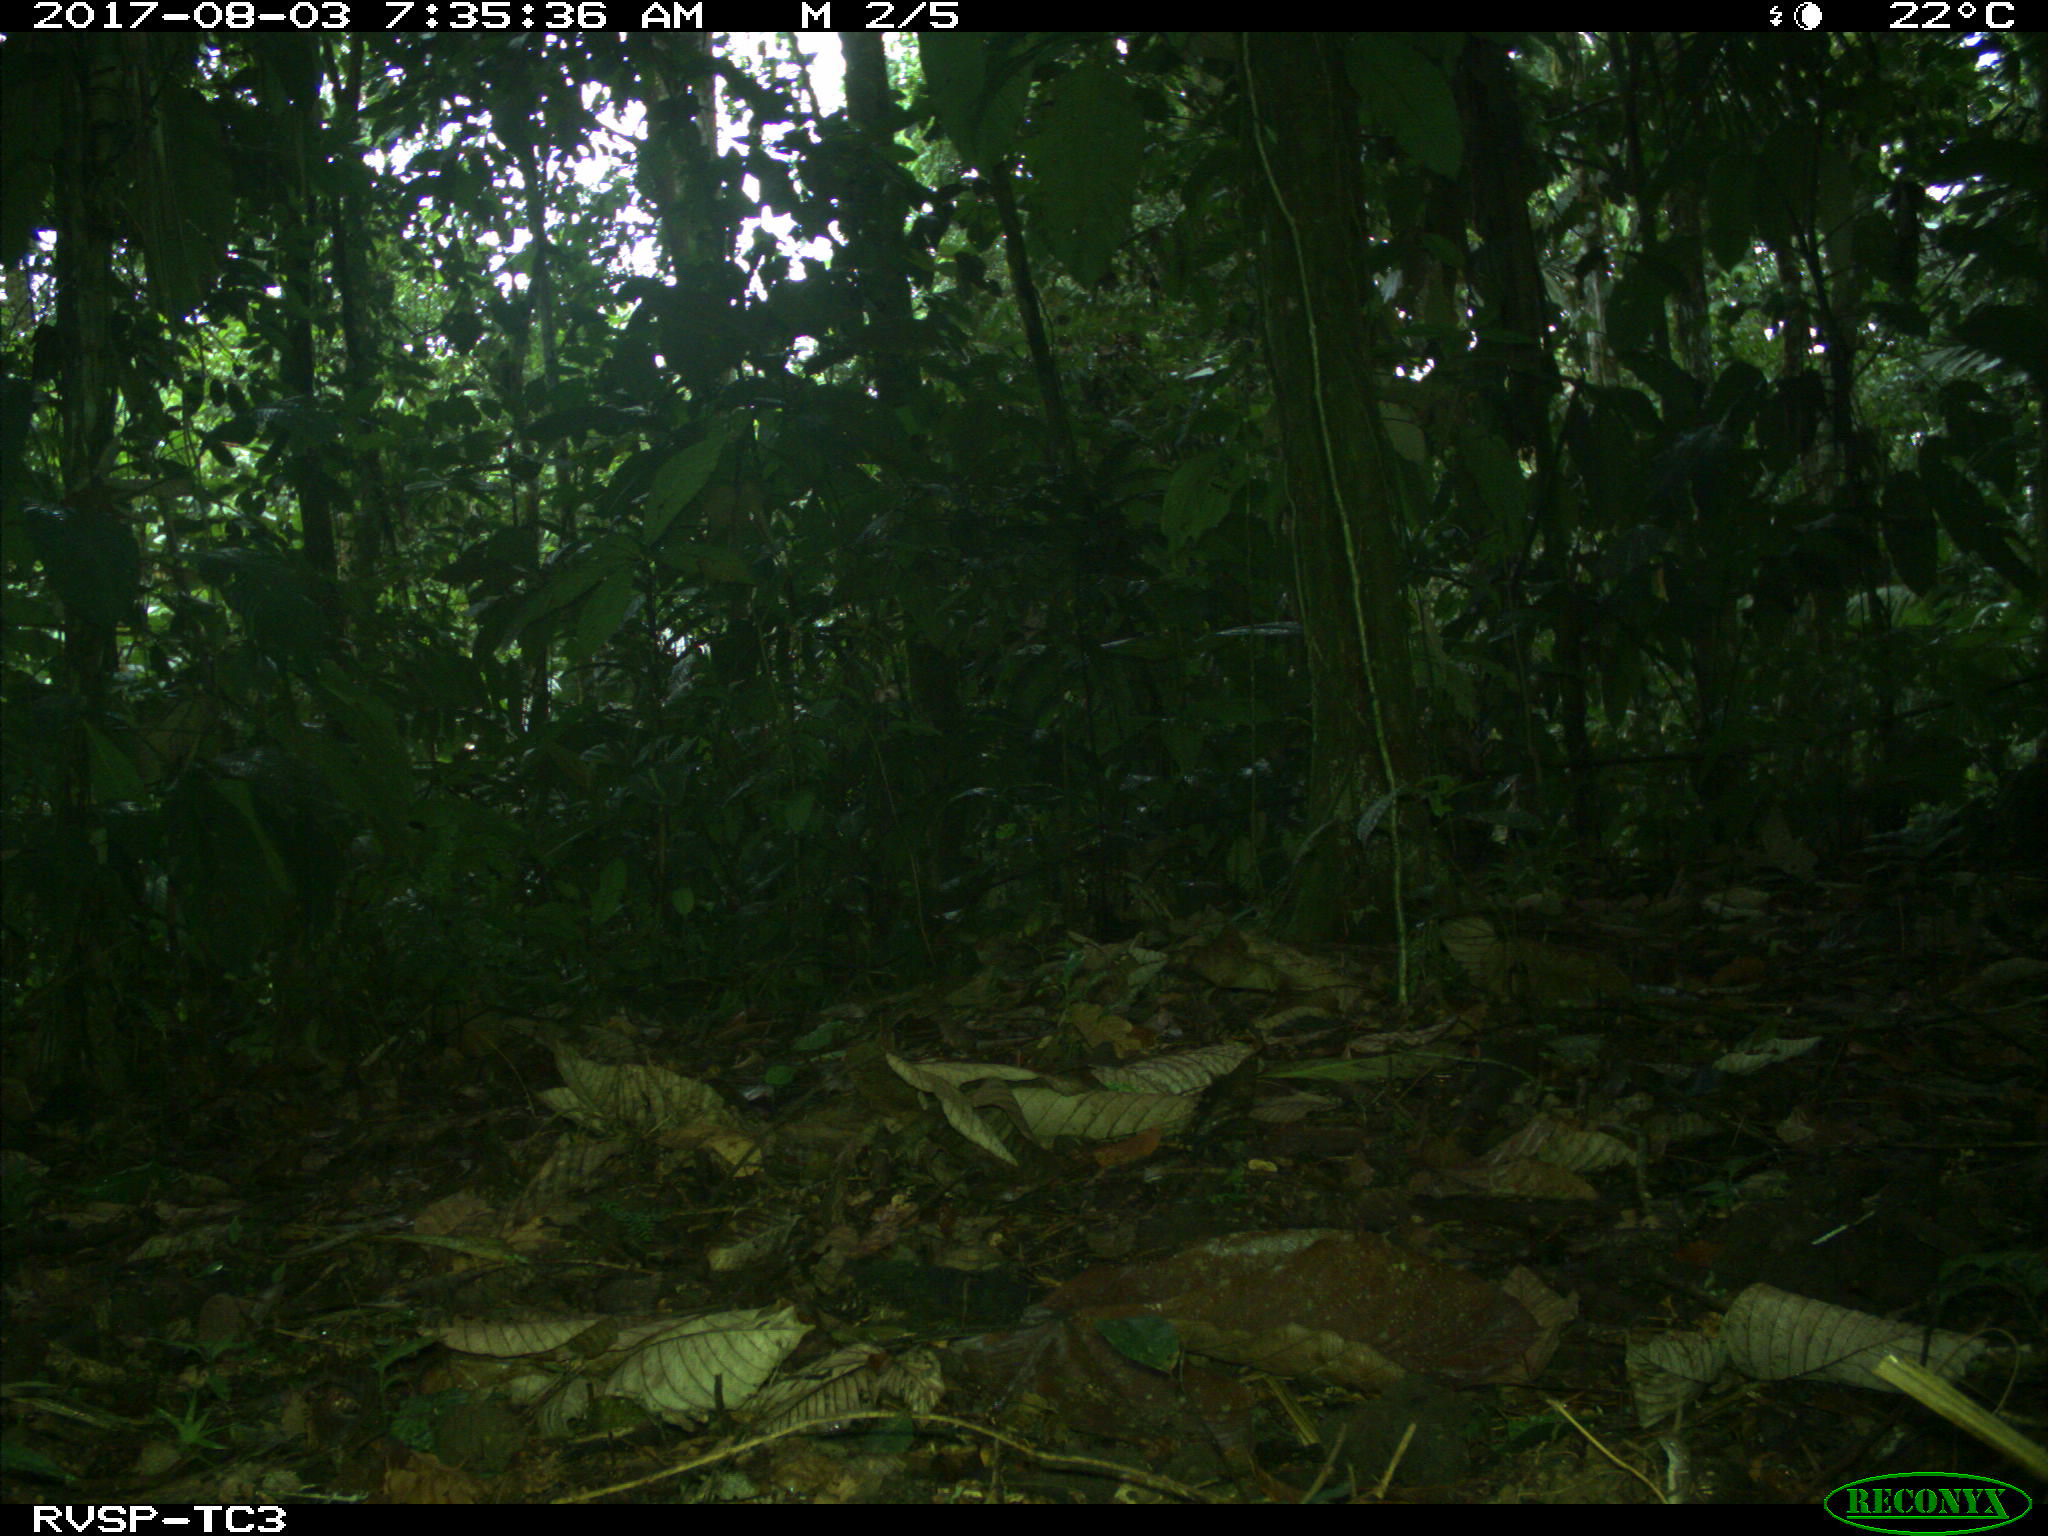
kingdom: Animalia
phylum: Chordata
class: Mammalia
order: Rodentia
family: Dasyproctidae
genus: Dasyprocta
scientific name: Dasyprocta punctata
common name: Central american agouti
